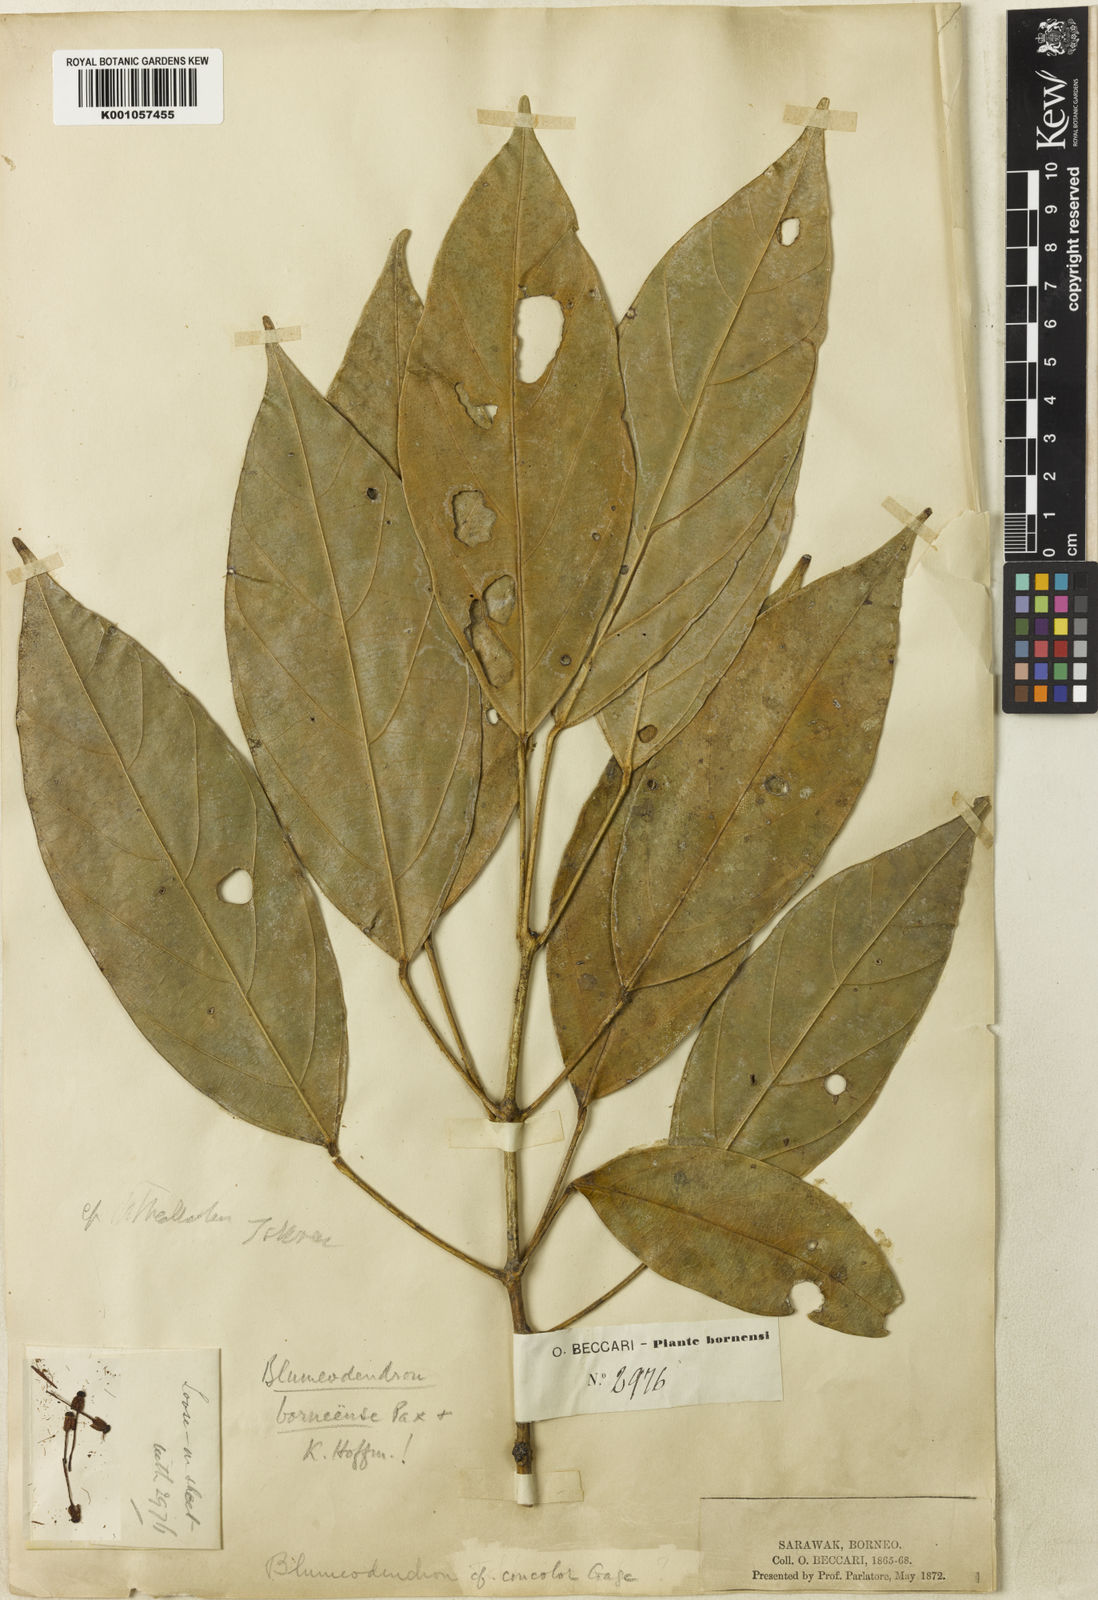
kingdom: Plantae
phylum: Tracheophyta
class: Magnoliopsida
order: Malpighiales
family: Euphorbiaceae
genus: Blumeodendron
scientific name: Blumeodendron borneense
